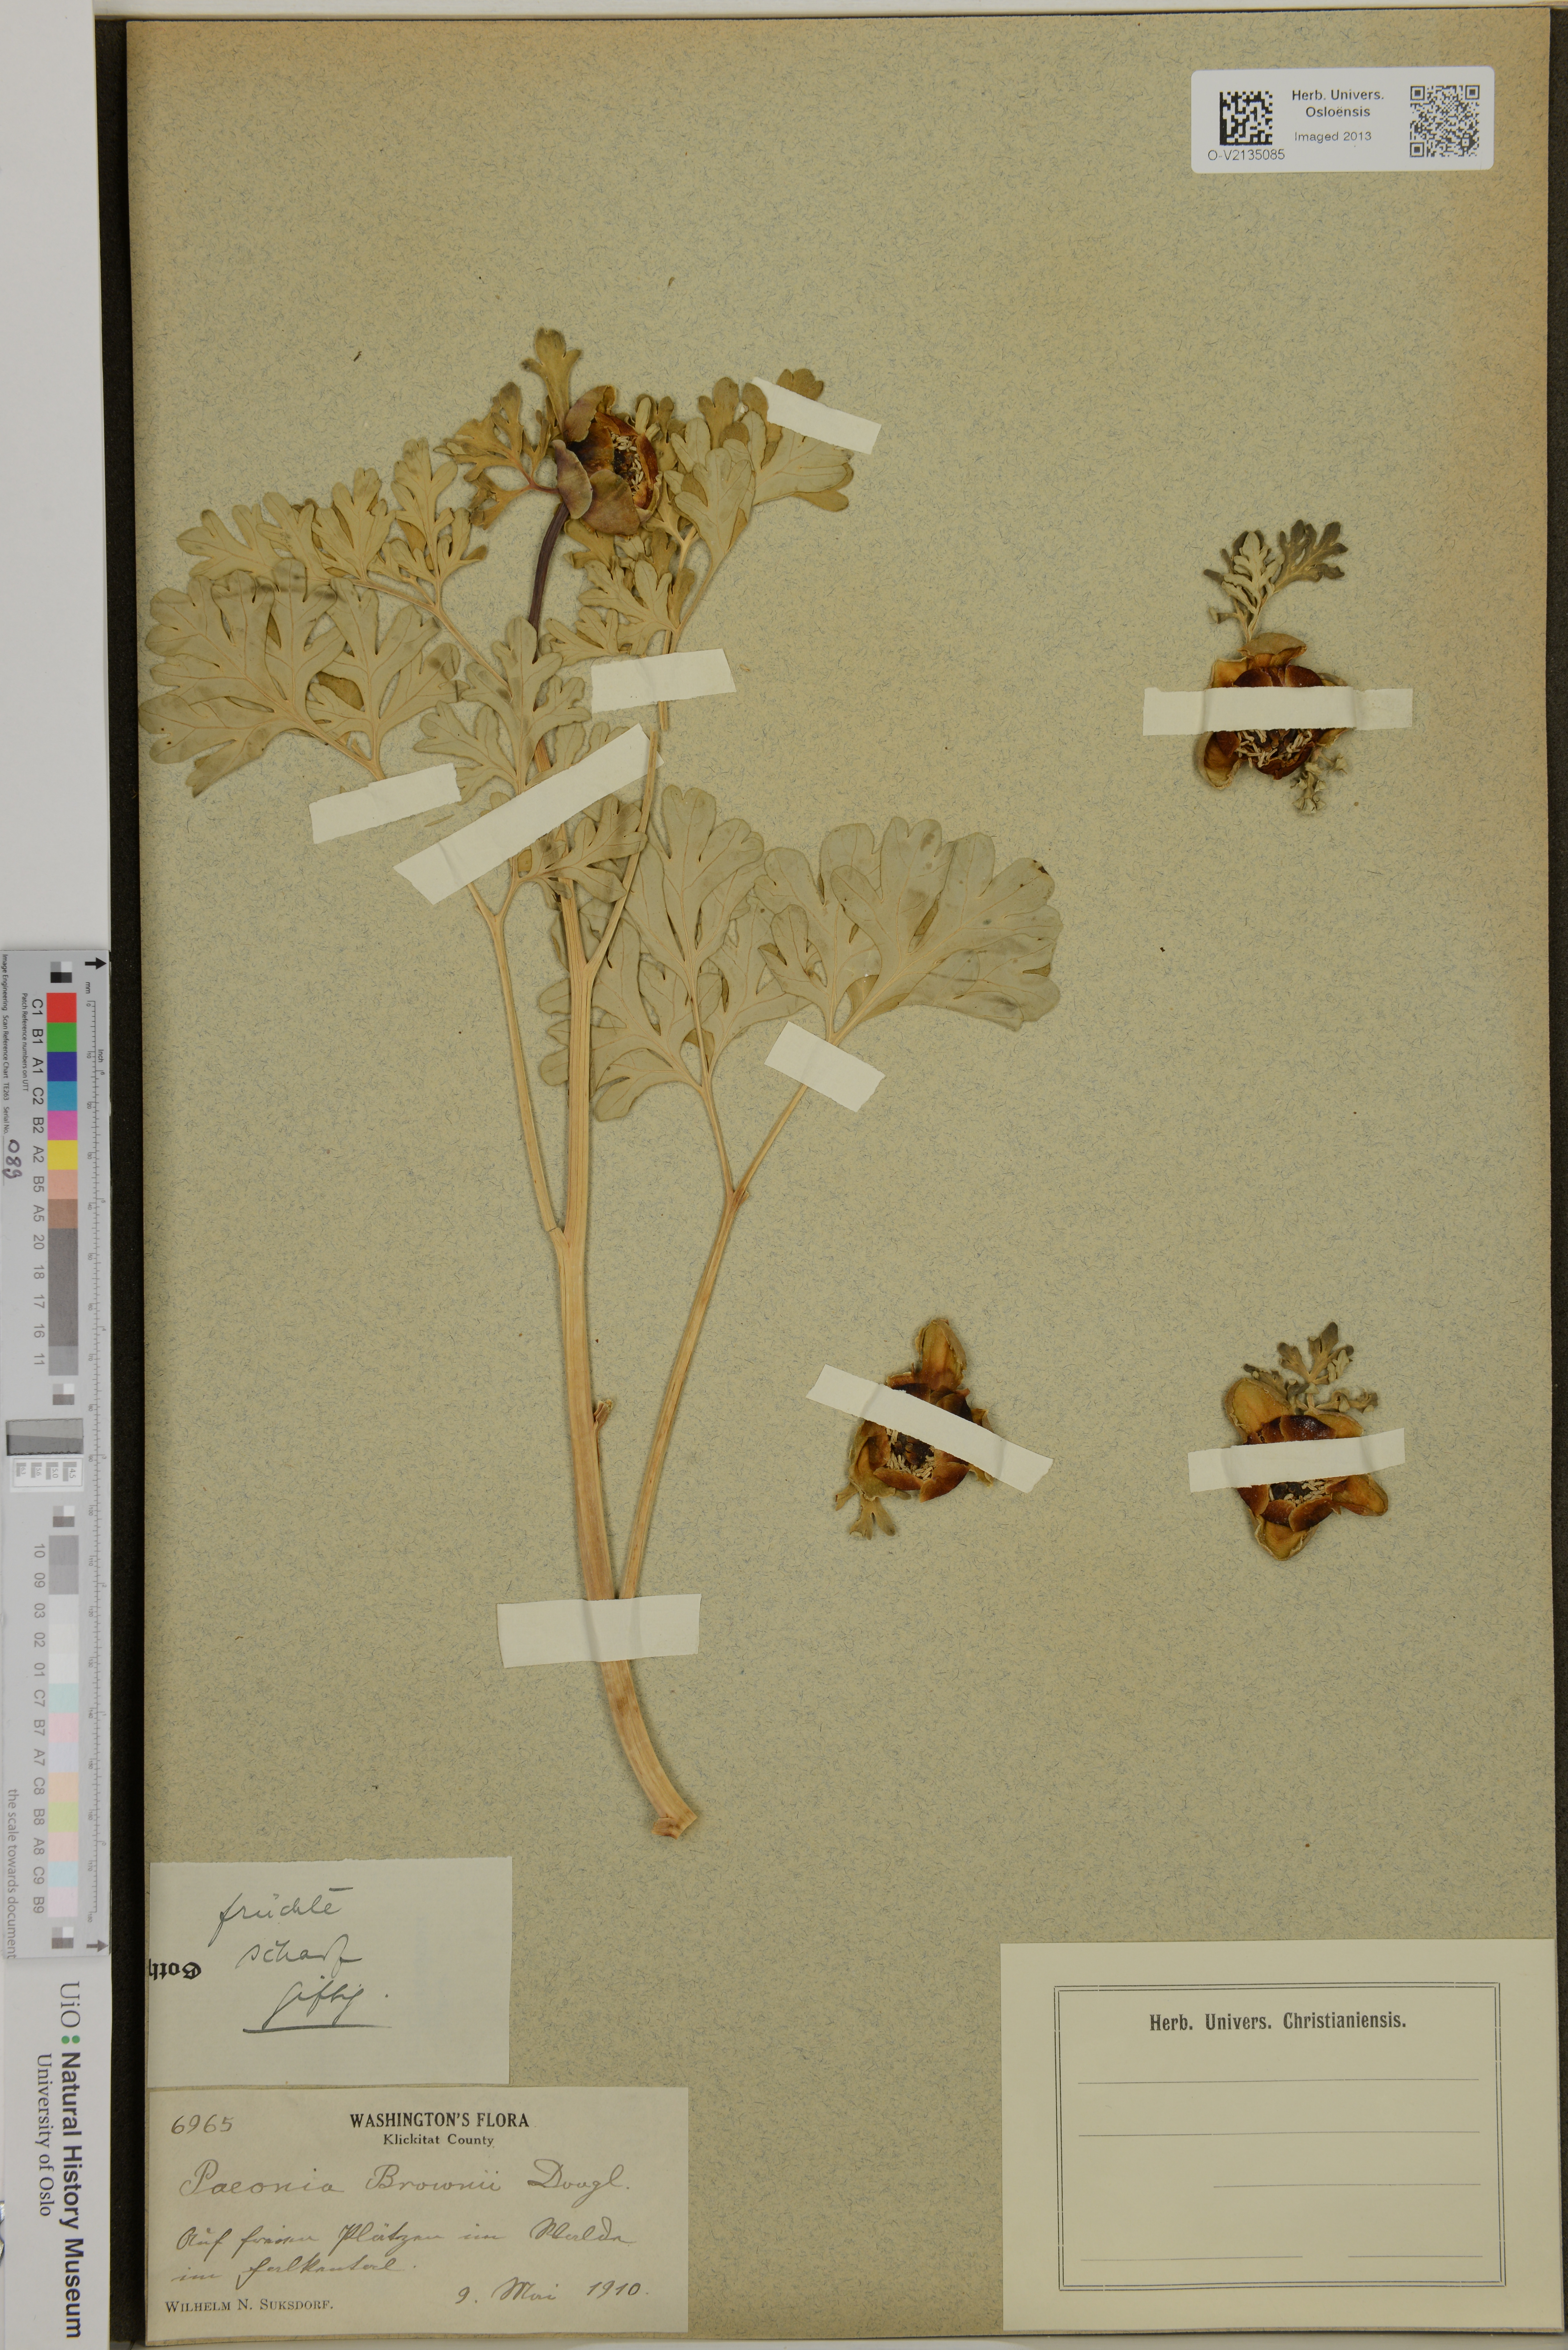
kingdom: Plantae
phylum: Tracheophyta
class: Magnoliopsida
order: Saxifragales
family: Paeoniaceae
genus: Paeonia
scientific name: Paeonia brownii
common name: Brown's peony
